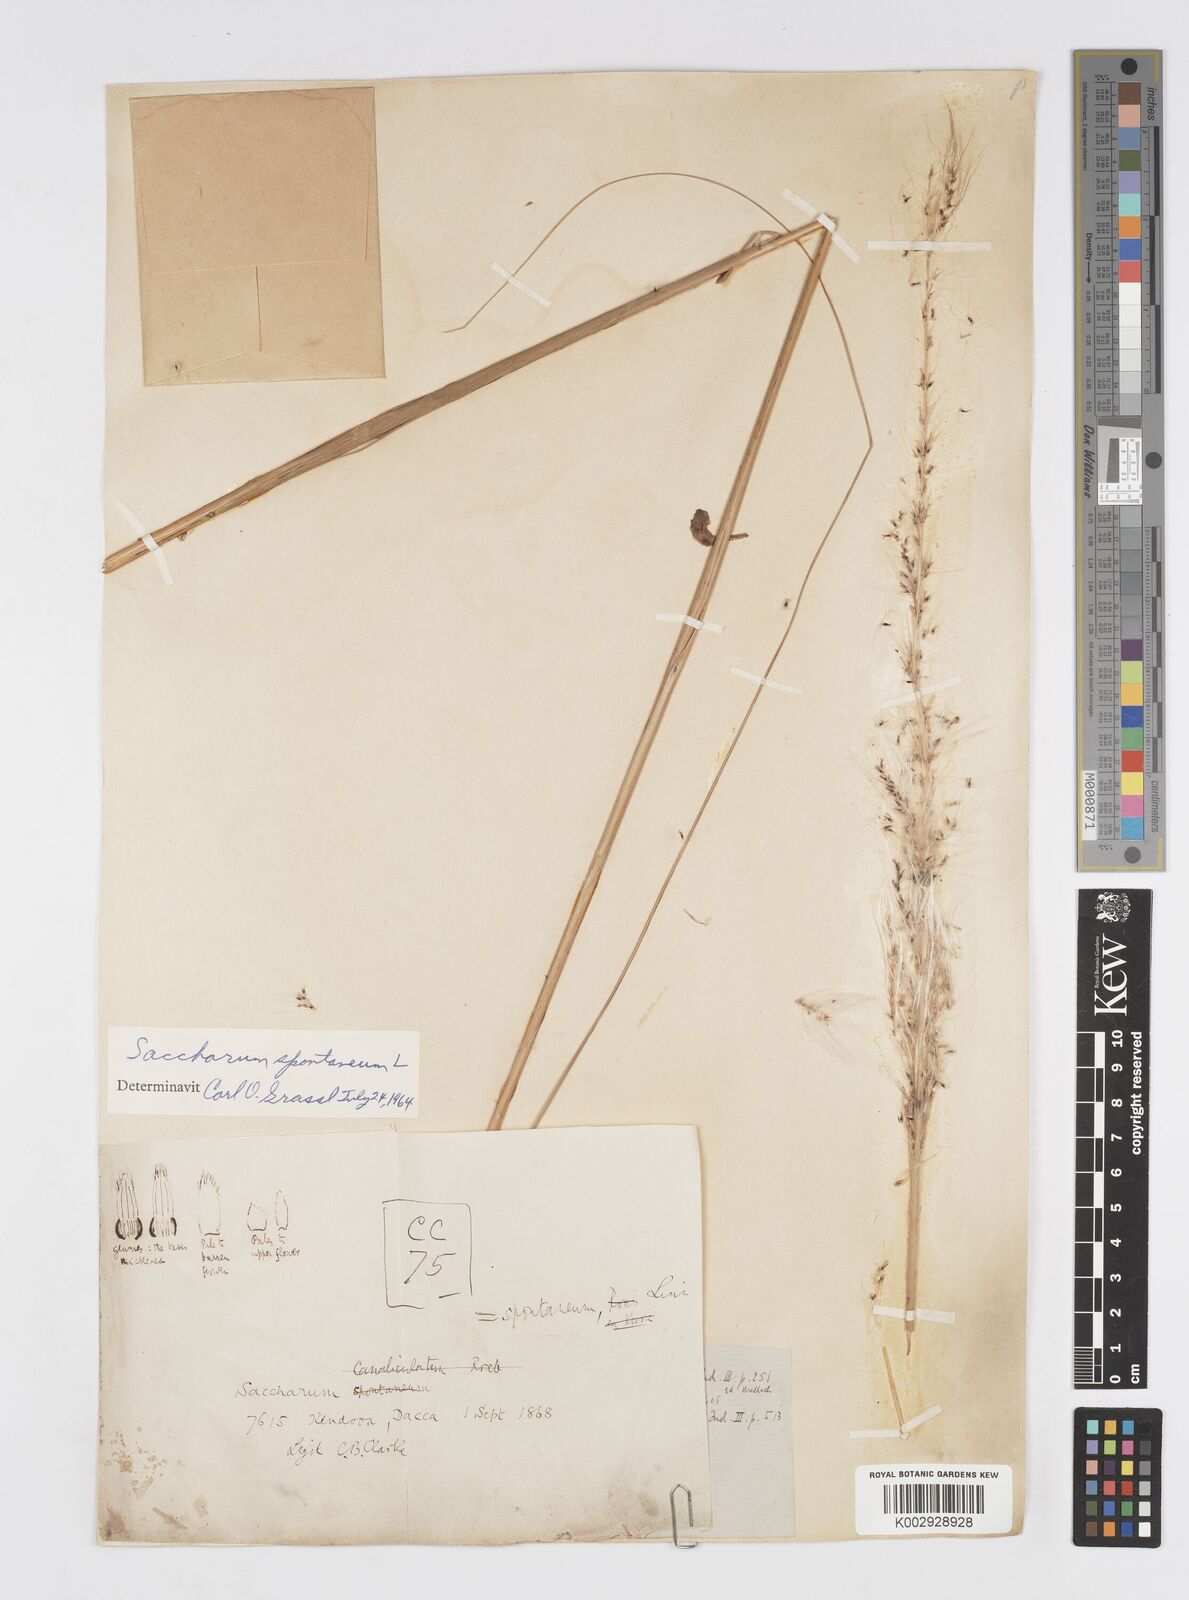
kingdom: Plantae
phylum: Tracheophyta
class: Liliopsida
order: Poales
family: Poaceae
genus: Saccharum
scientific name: Saccharum spontaneum
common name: Wild sugarcane
